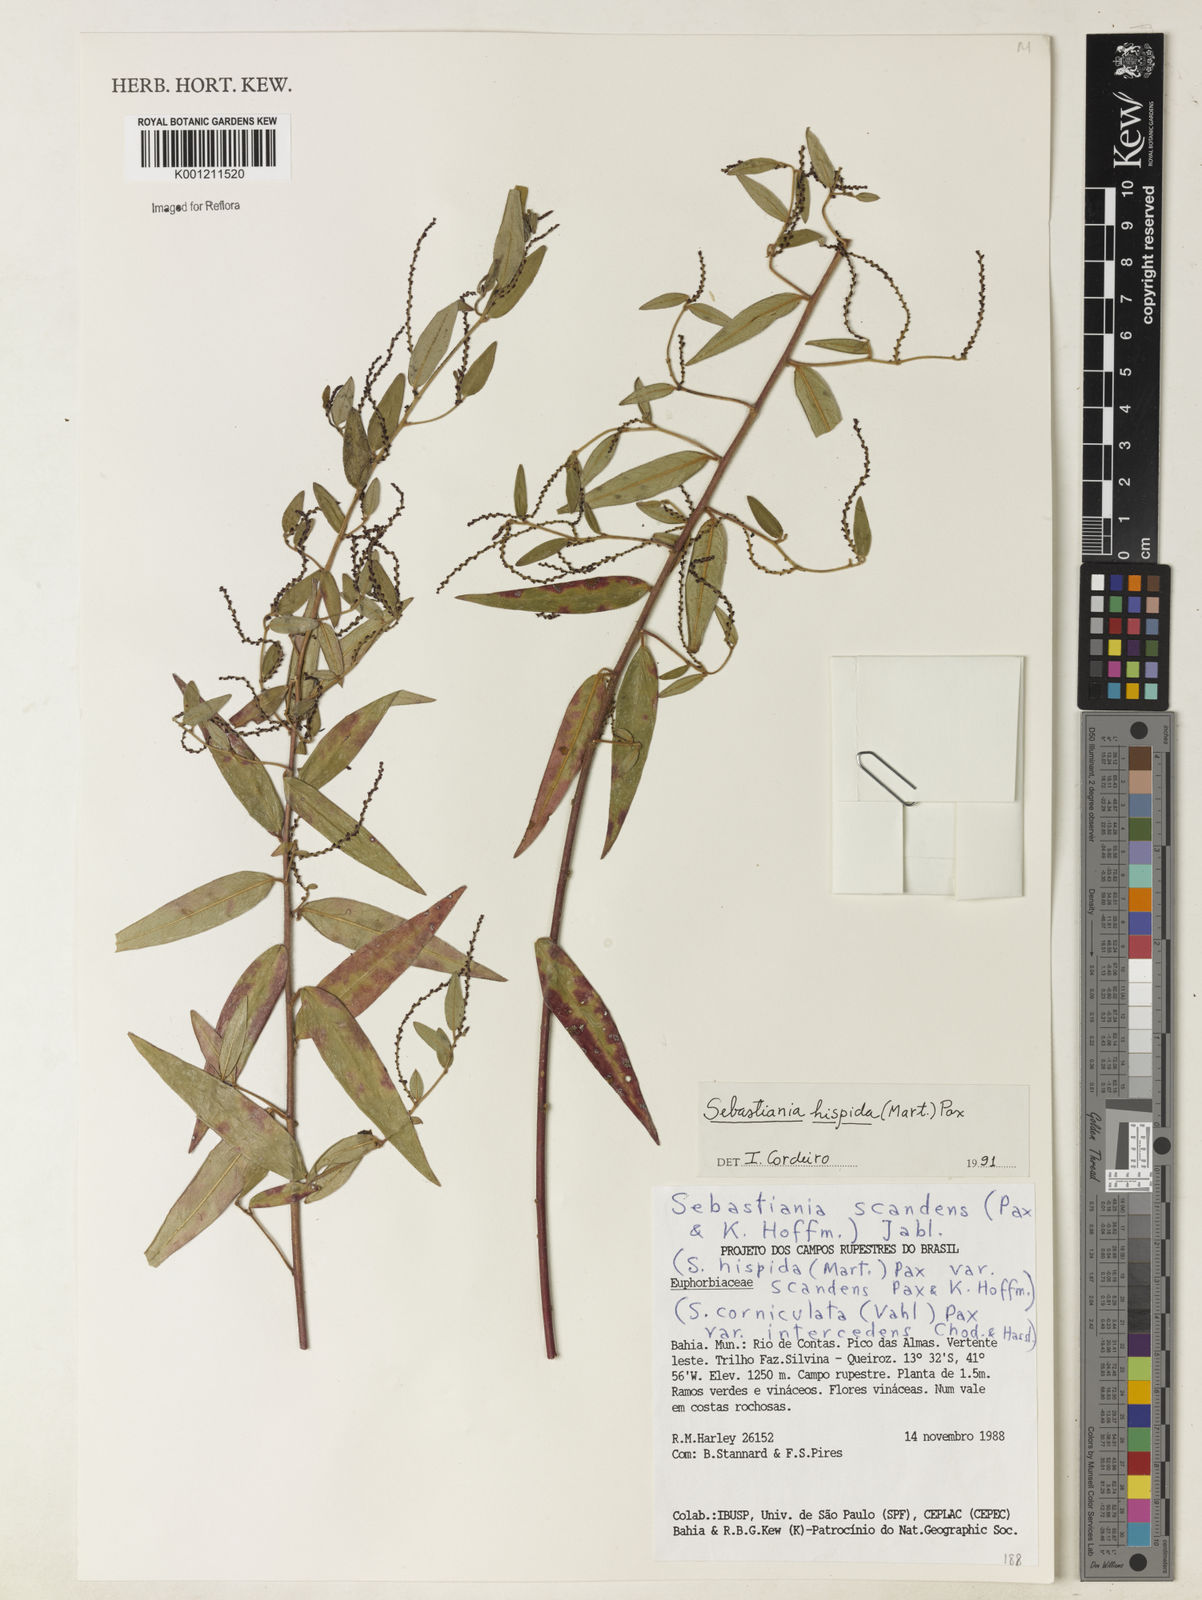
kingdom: Plantae
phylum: Tracheophyta
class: Magnoliopsida
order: Malpighiales
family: Euphorbiaceae
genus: Microstachys
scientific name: Microstachys hispida
